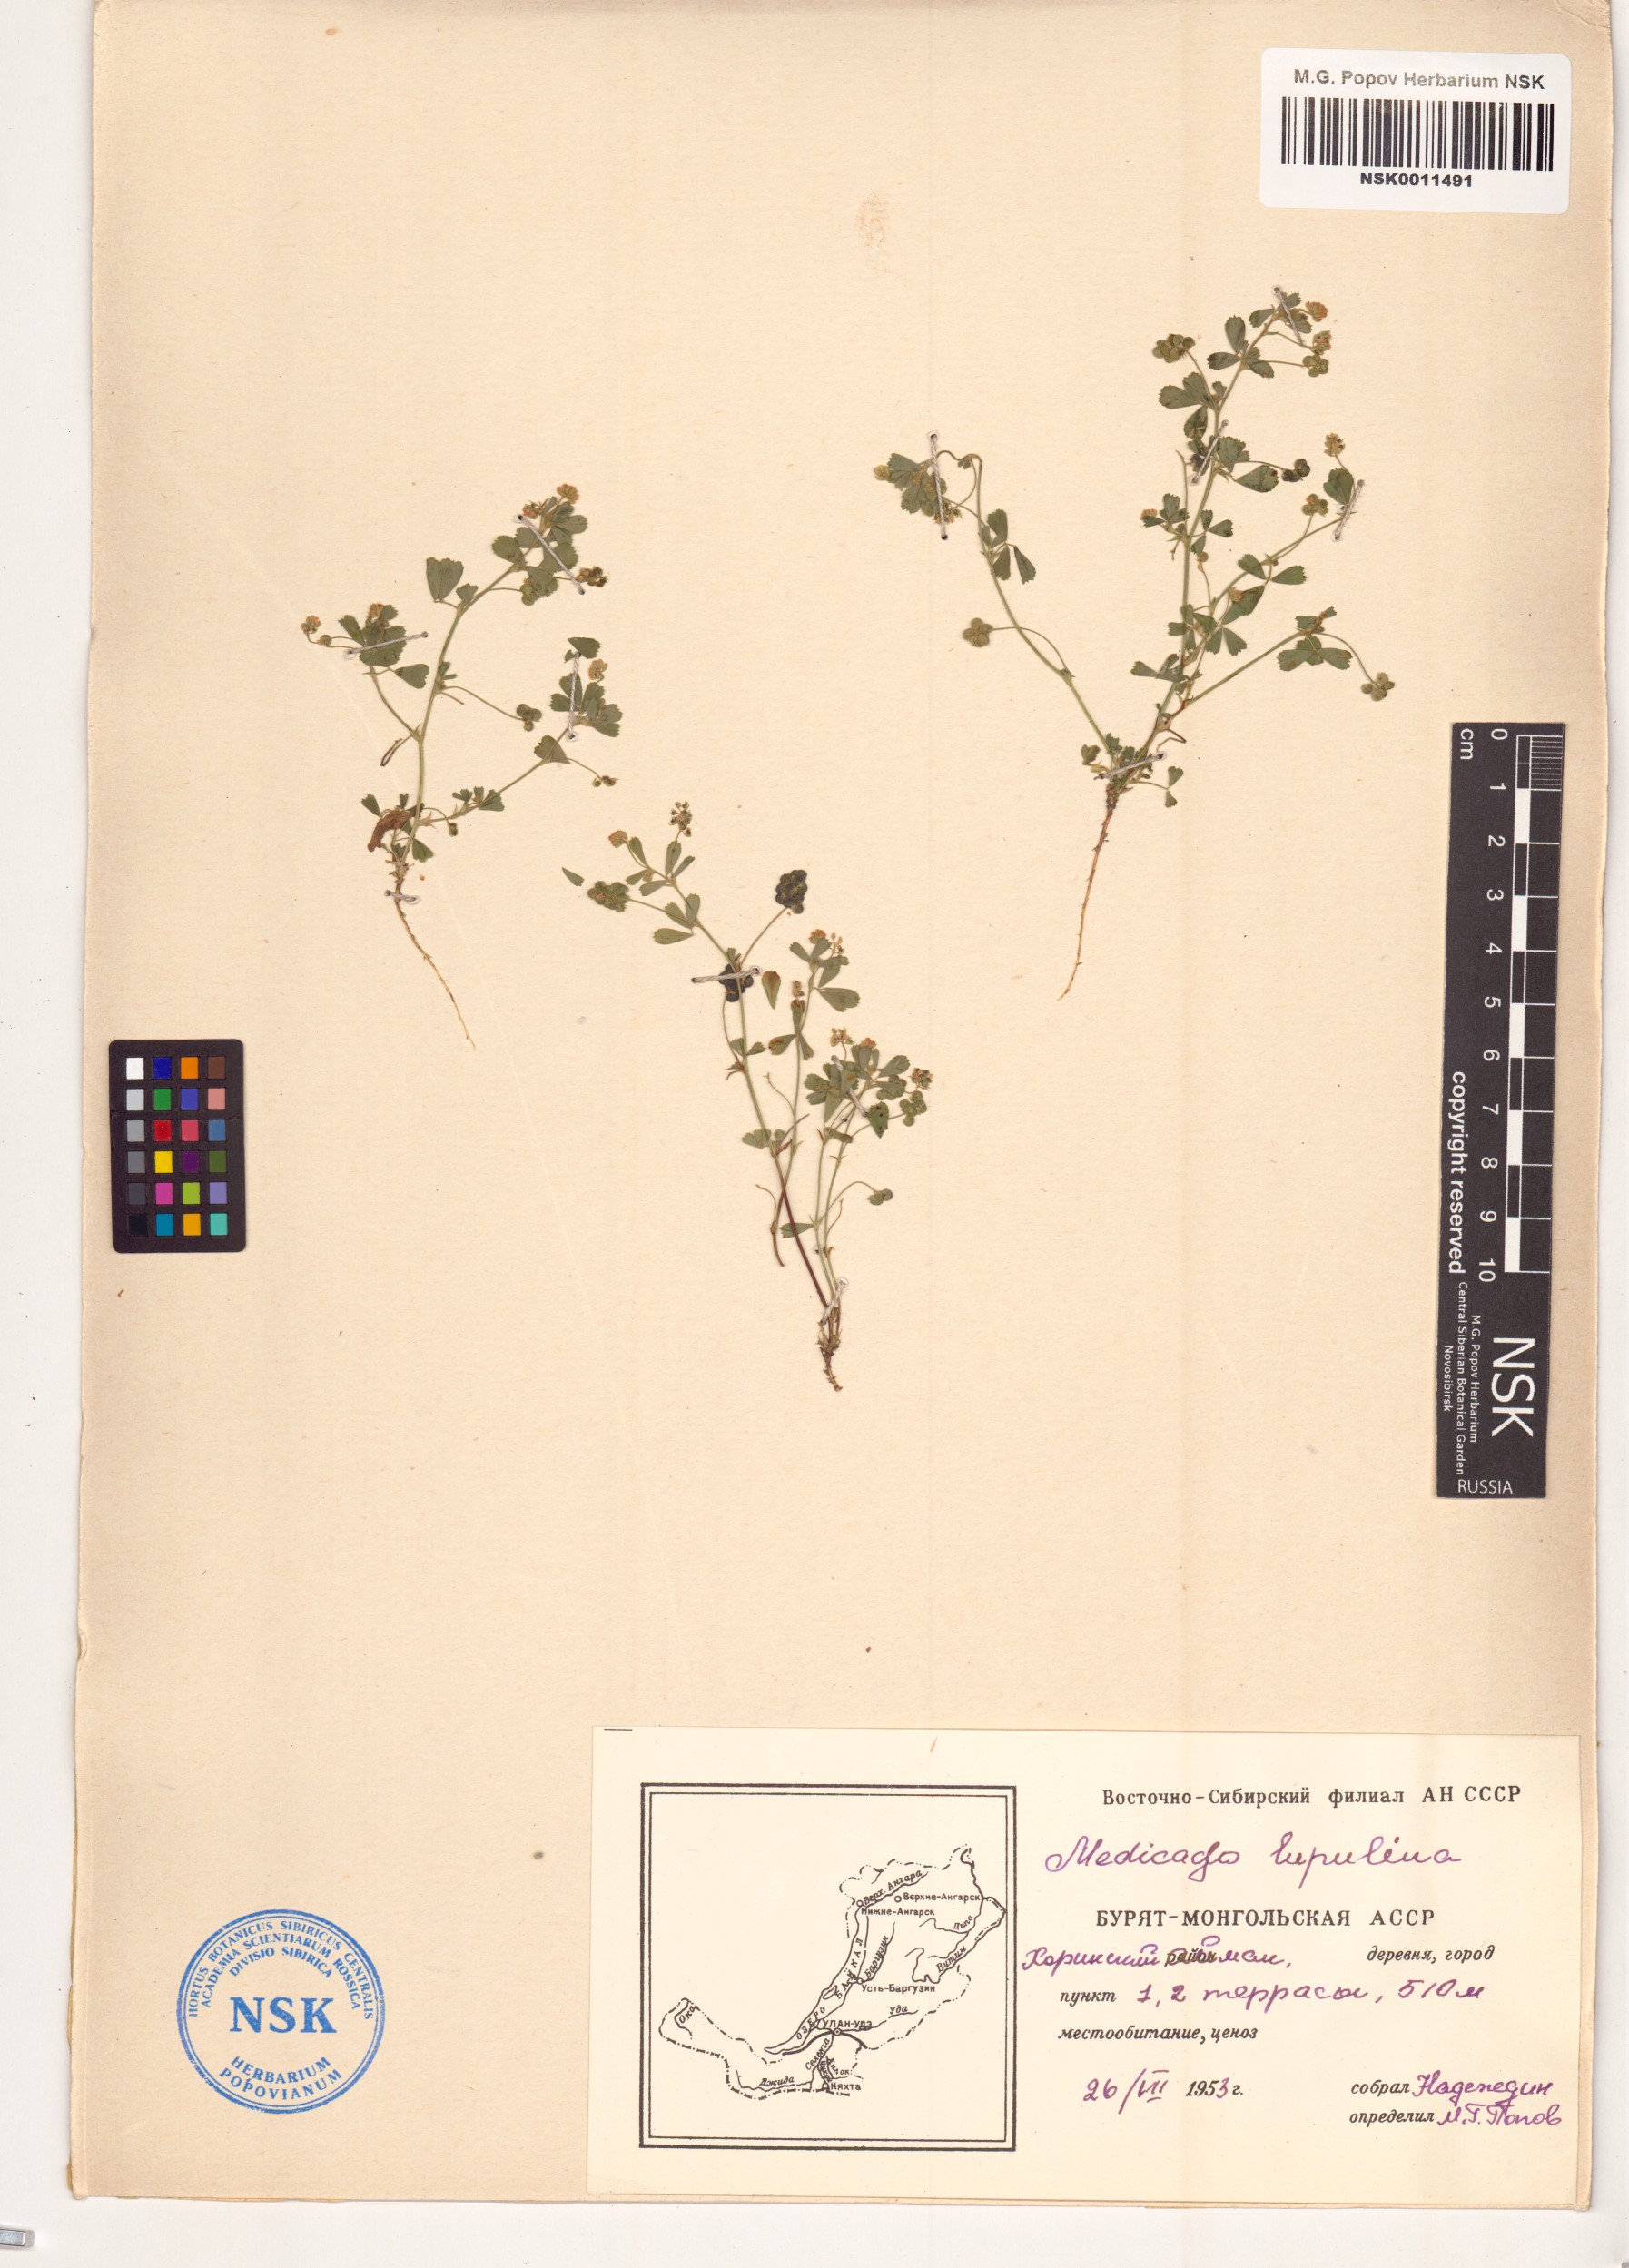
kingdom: Plantae
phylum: Tracheophyta
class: Magnoliopsida
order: Fabales
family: Fabaceae
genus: Medicago
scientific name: Medicago lupulina
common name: Black medick
